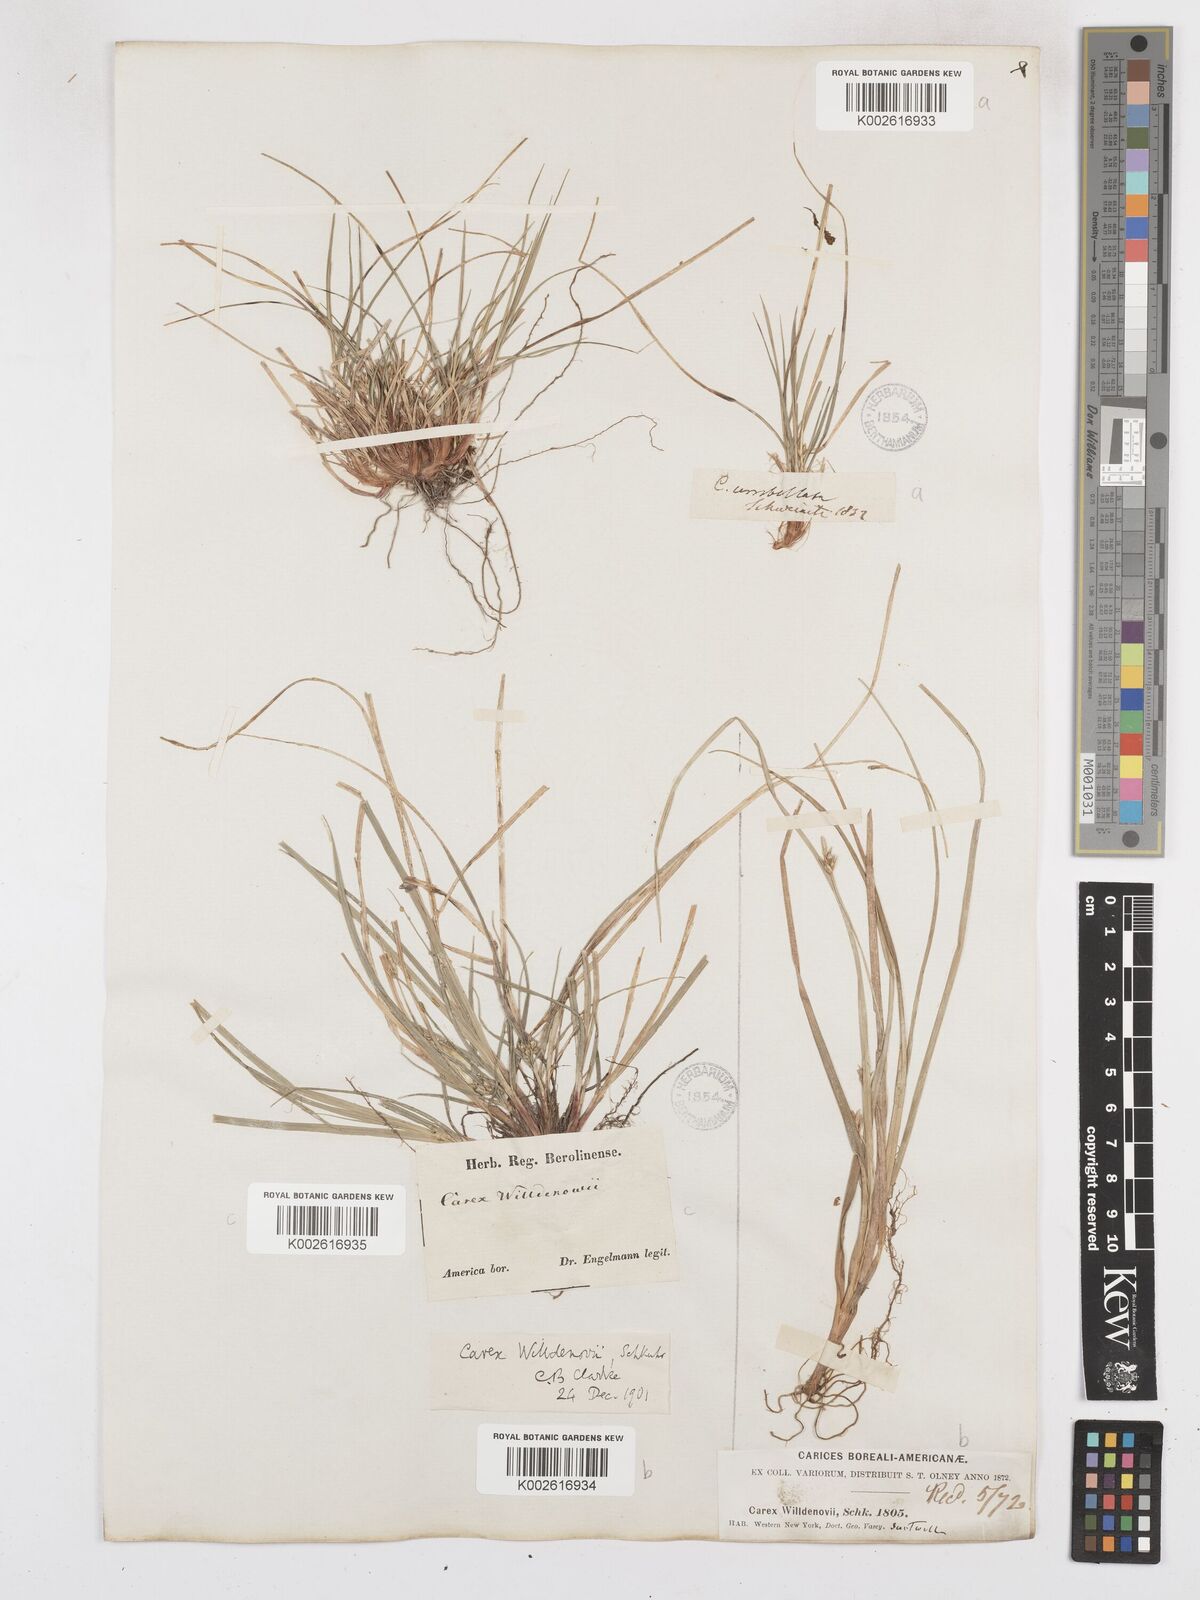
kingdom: Plantae
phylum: Tracheophyta
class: Liliopsida
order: Poales
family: Cyperaceae
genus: Carex
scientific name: Carex willdenowii
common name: Willdenow's sedge
